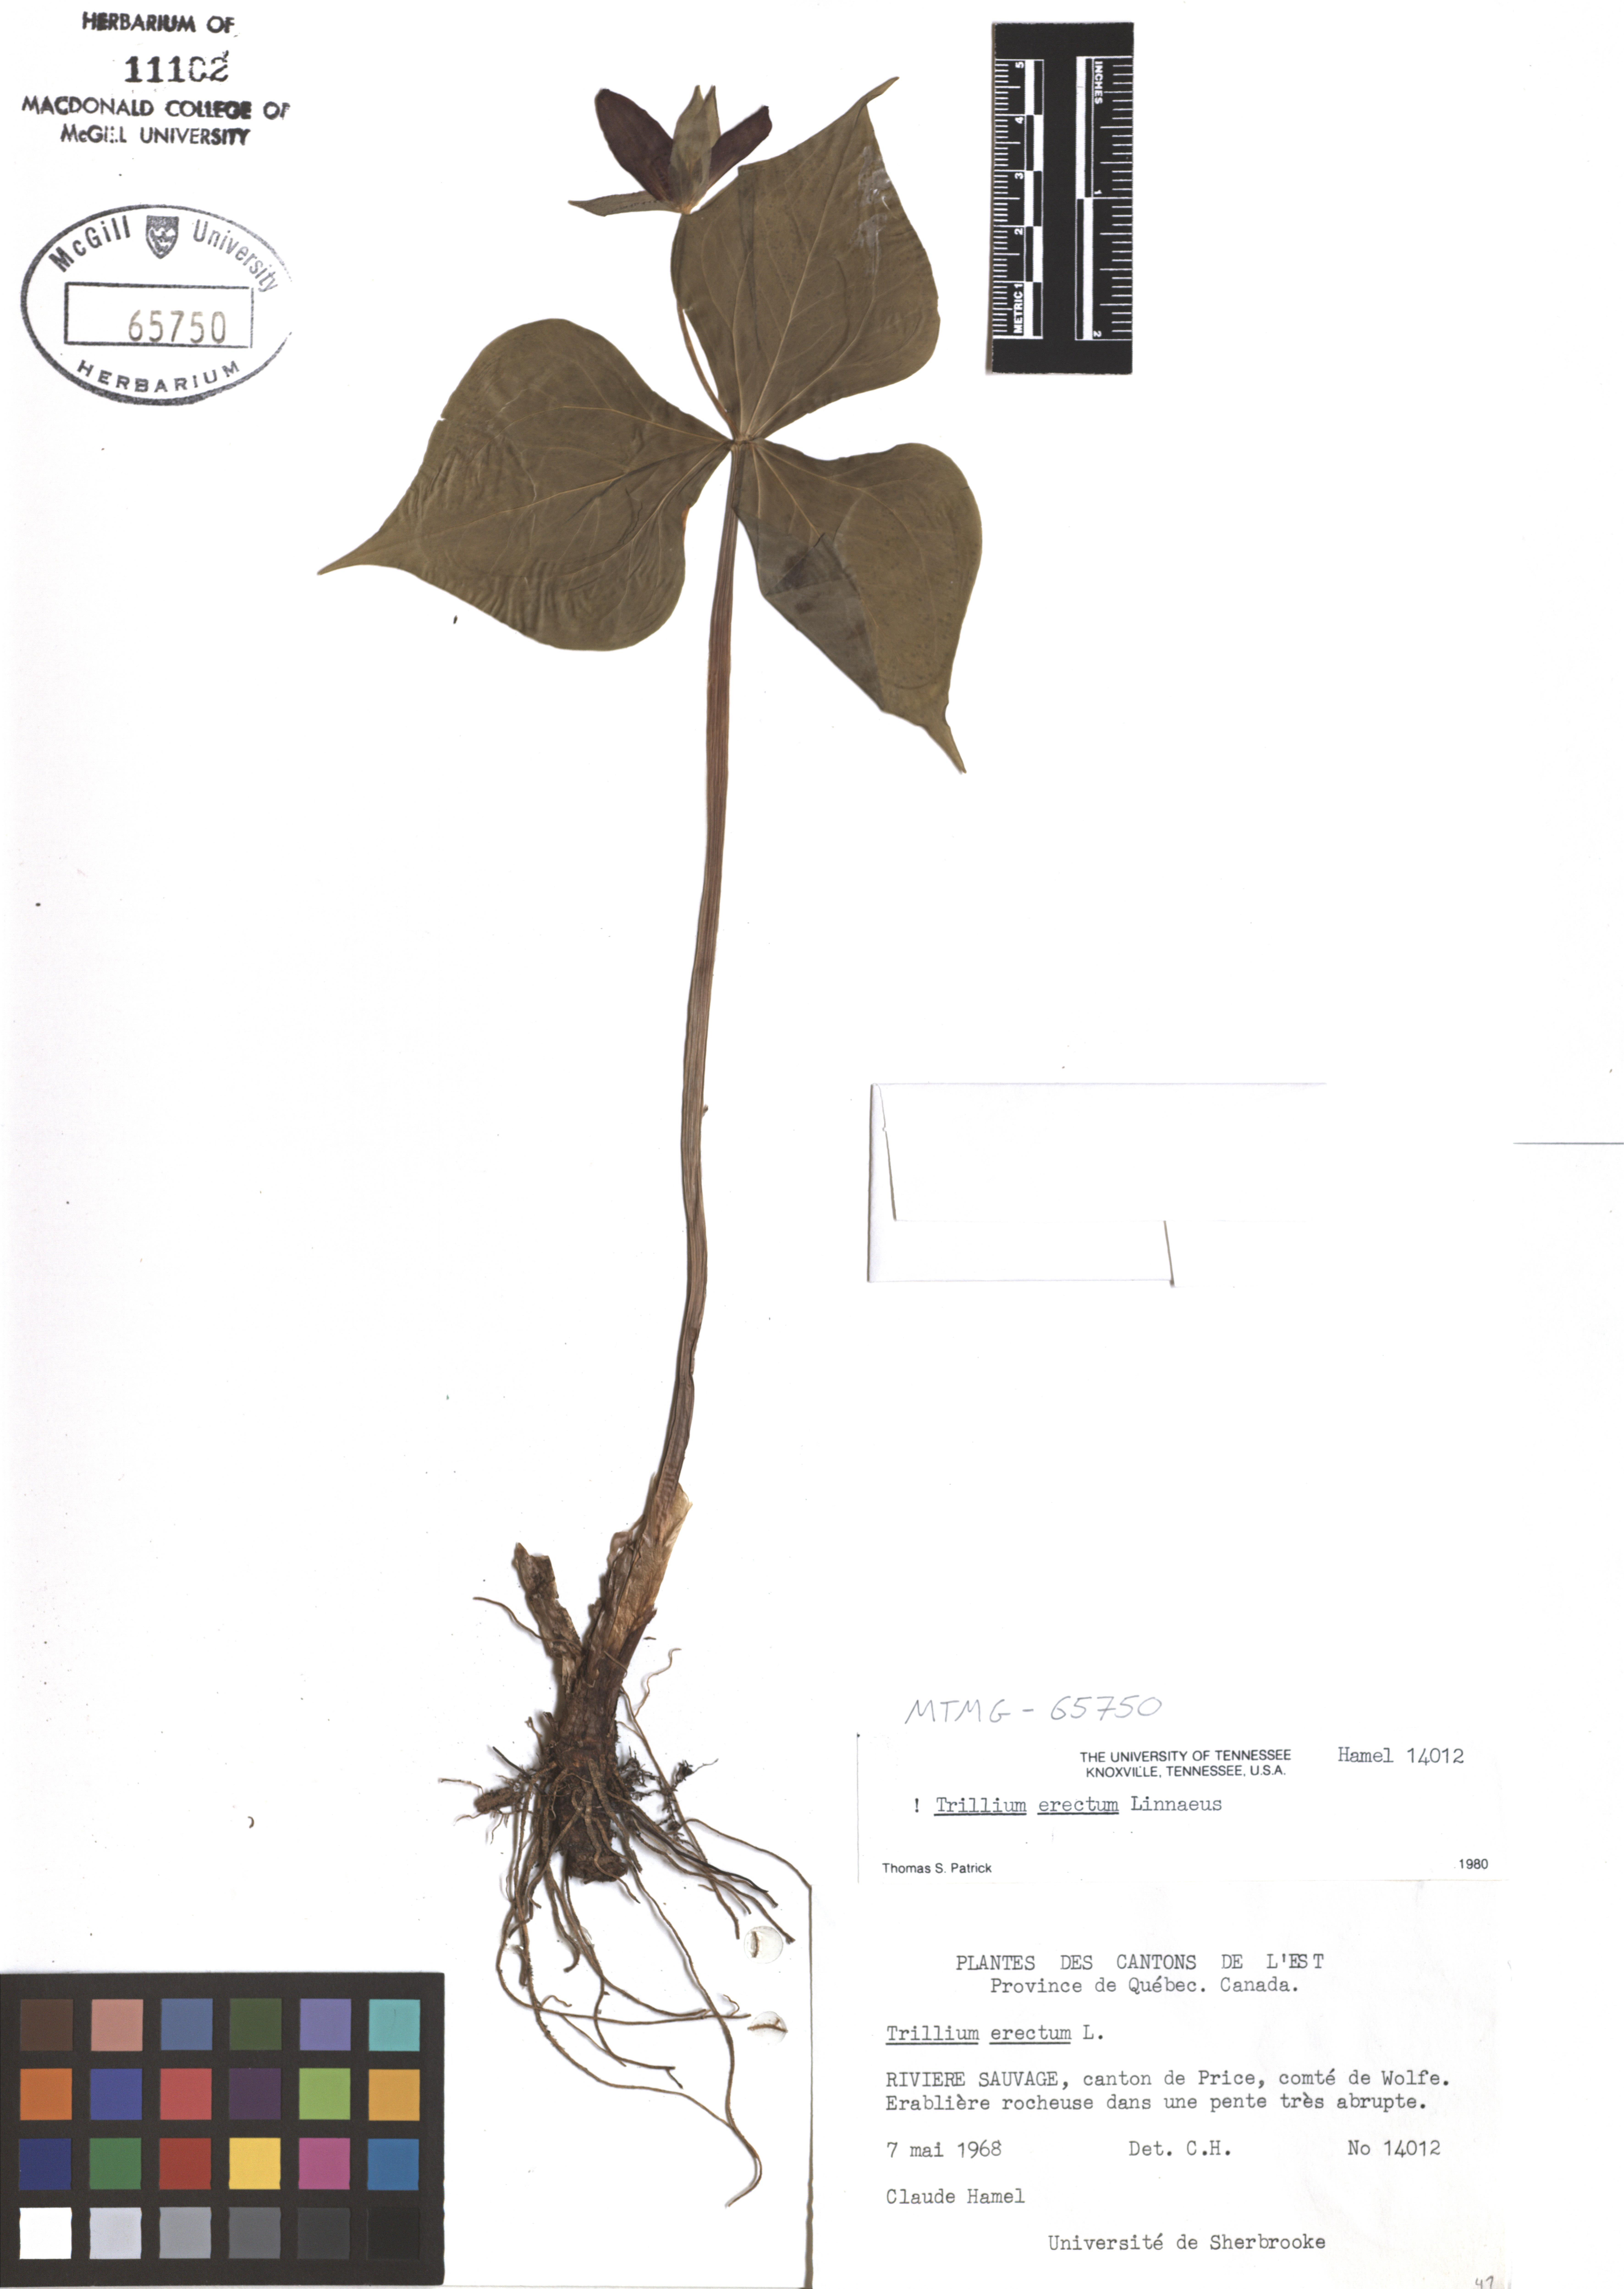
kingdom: Plantae
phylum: Tracheophyta
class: Liliopsida
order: Liliales
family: Melanthiaceae
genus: Trillium
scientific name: Trillium erectum
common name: Purple trillium
